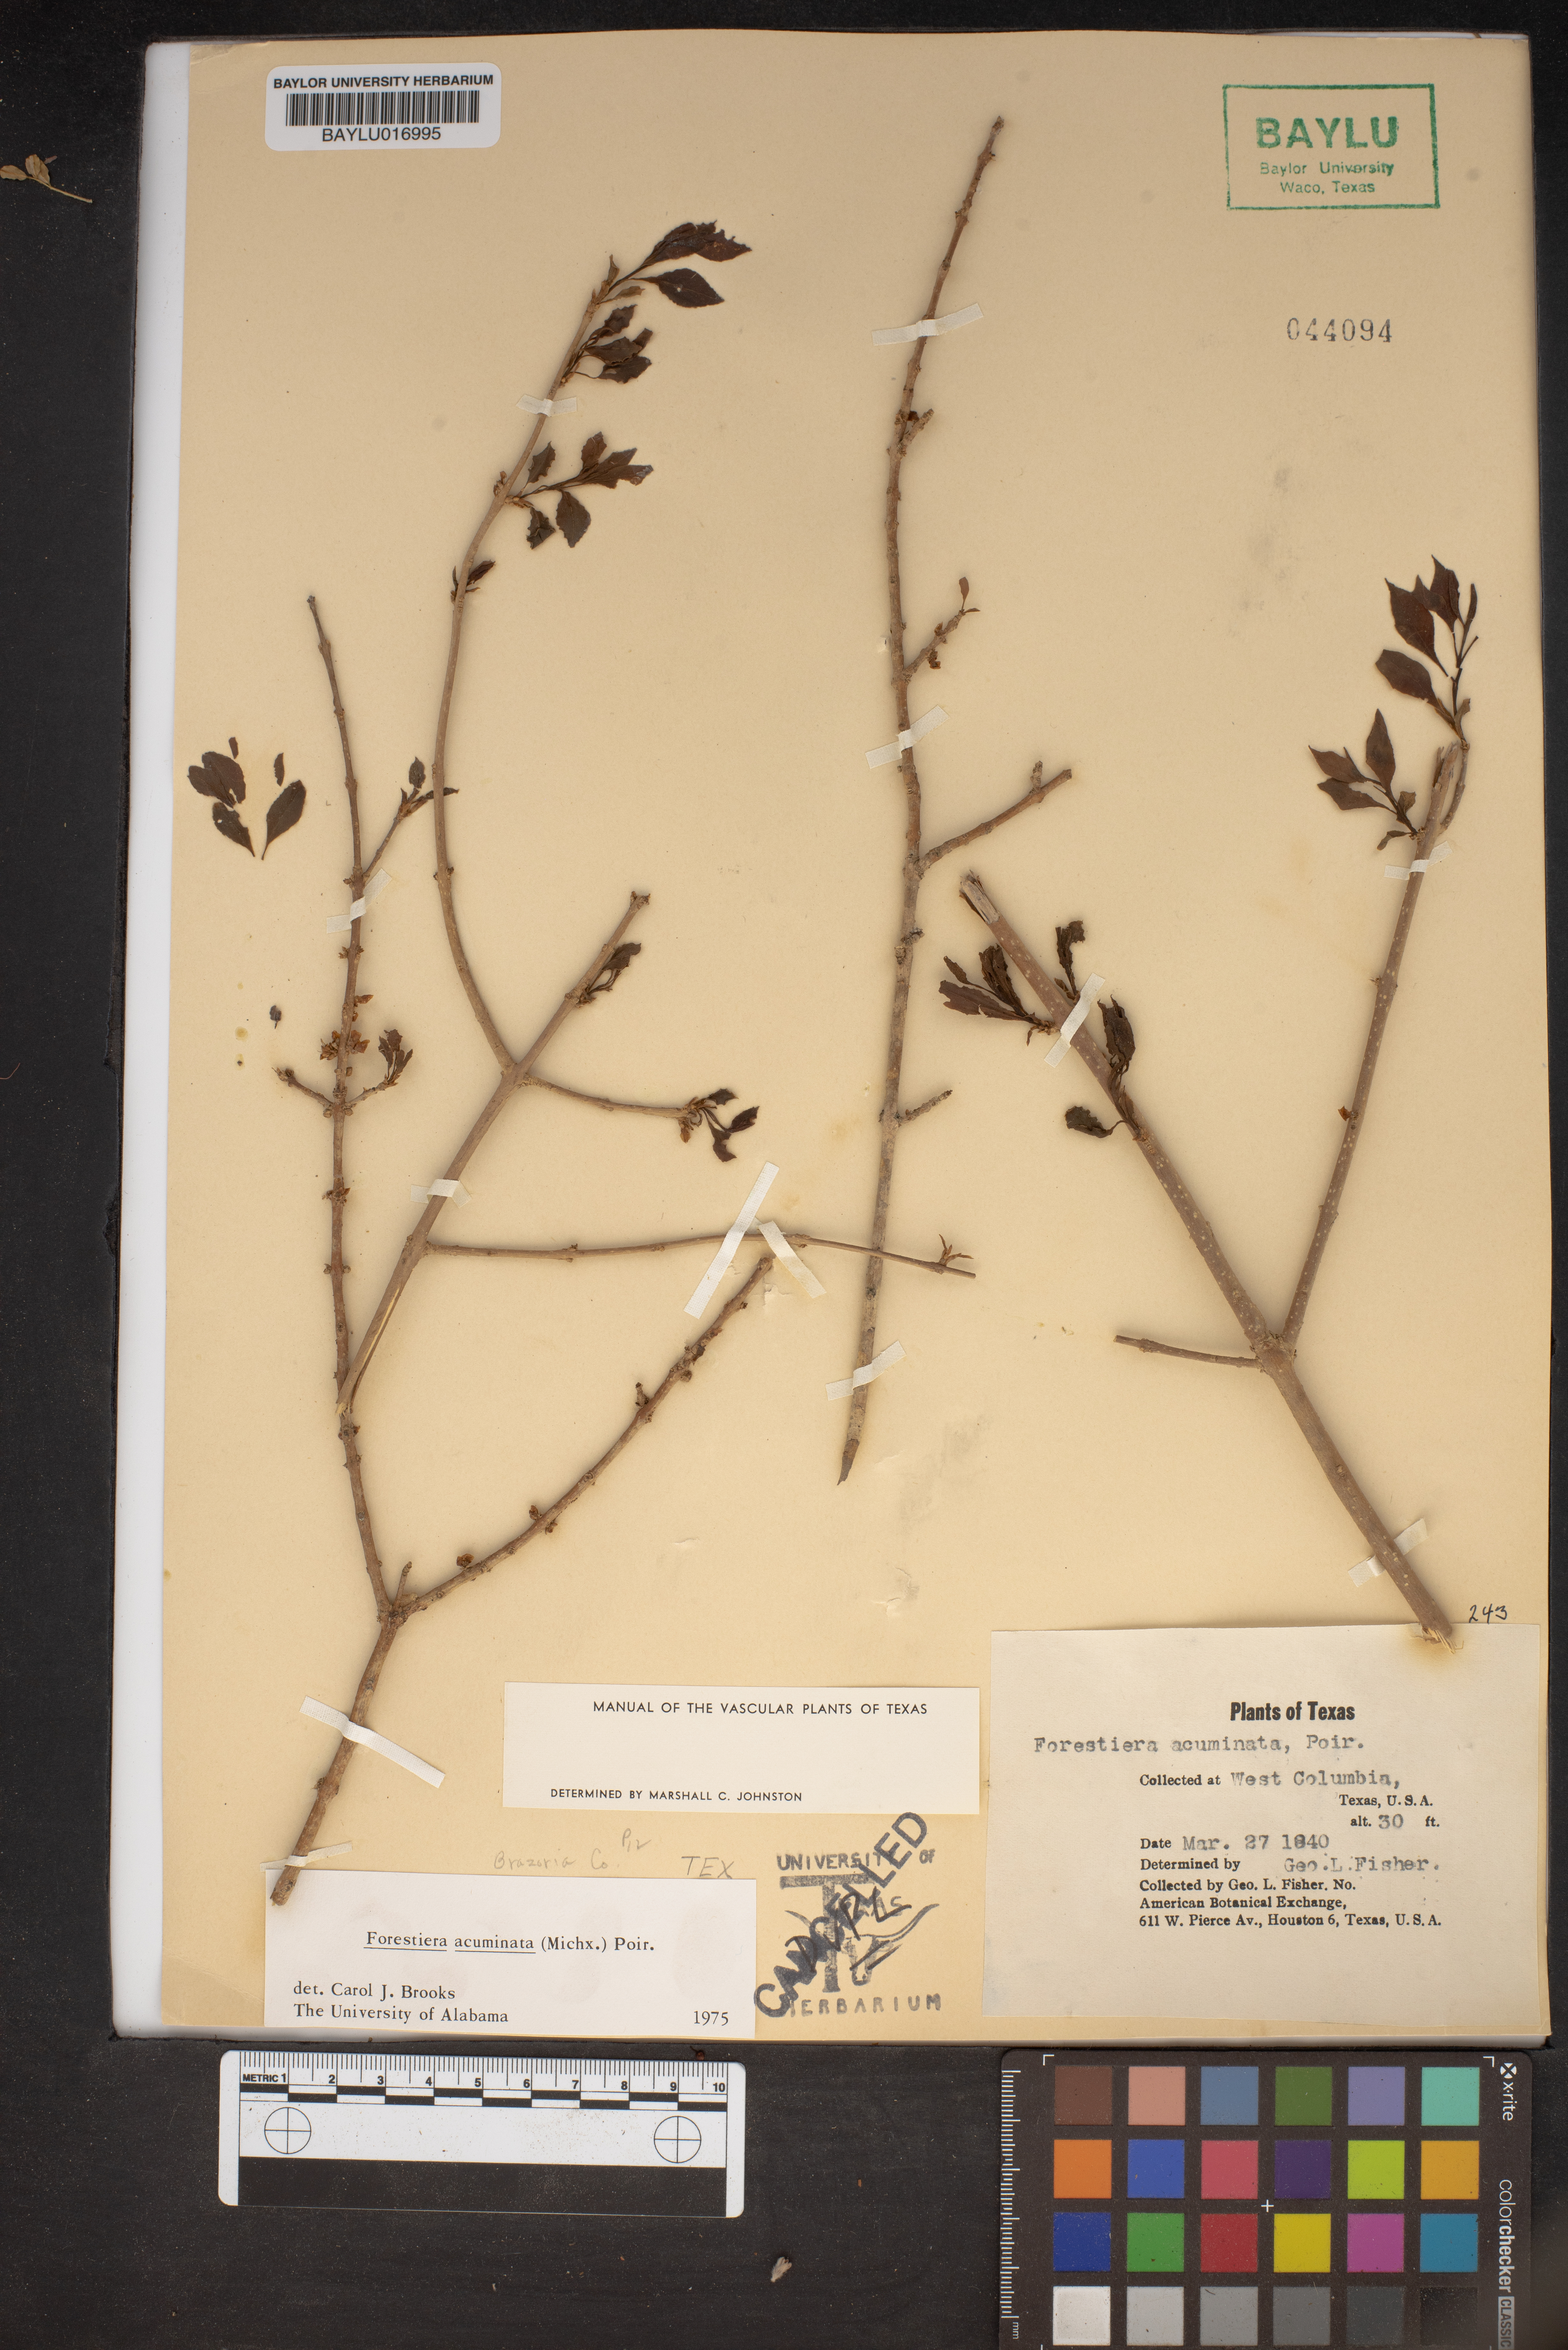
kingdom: Plantae
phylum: Tracheophyta
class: Magnoliopsida
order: Lamiales
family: Oleaceae
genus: Forestiera
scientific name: Forestiera acuminata
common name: Swamp-privet
